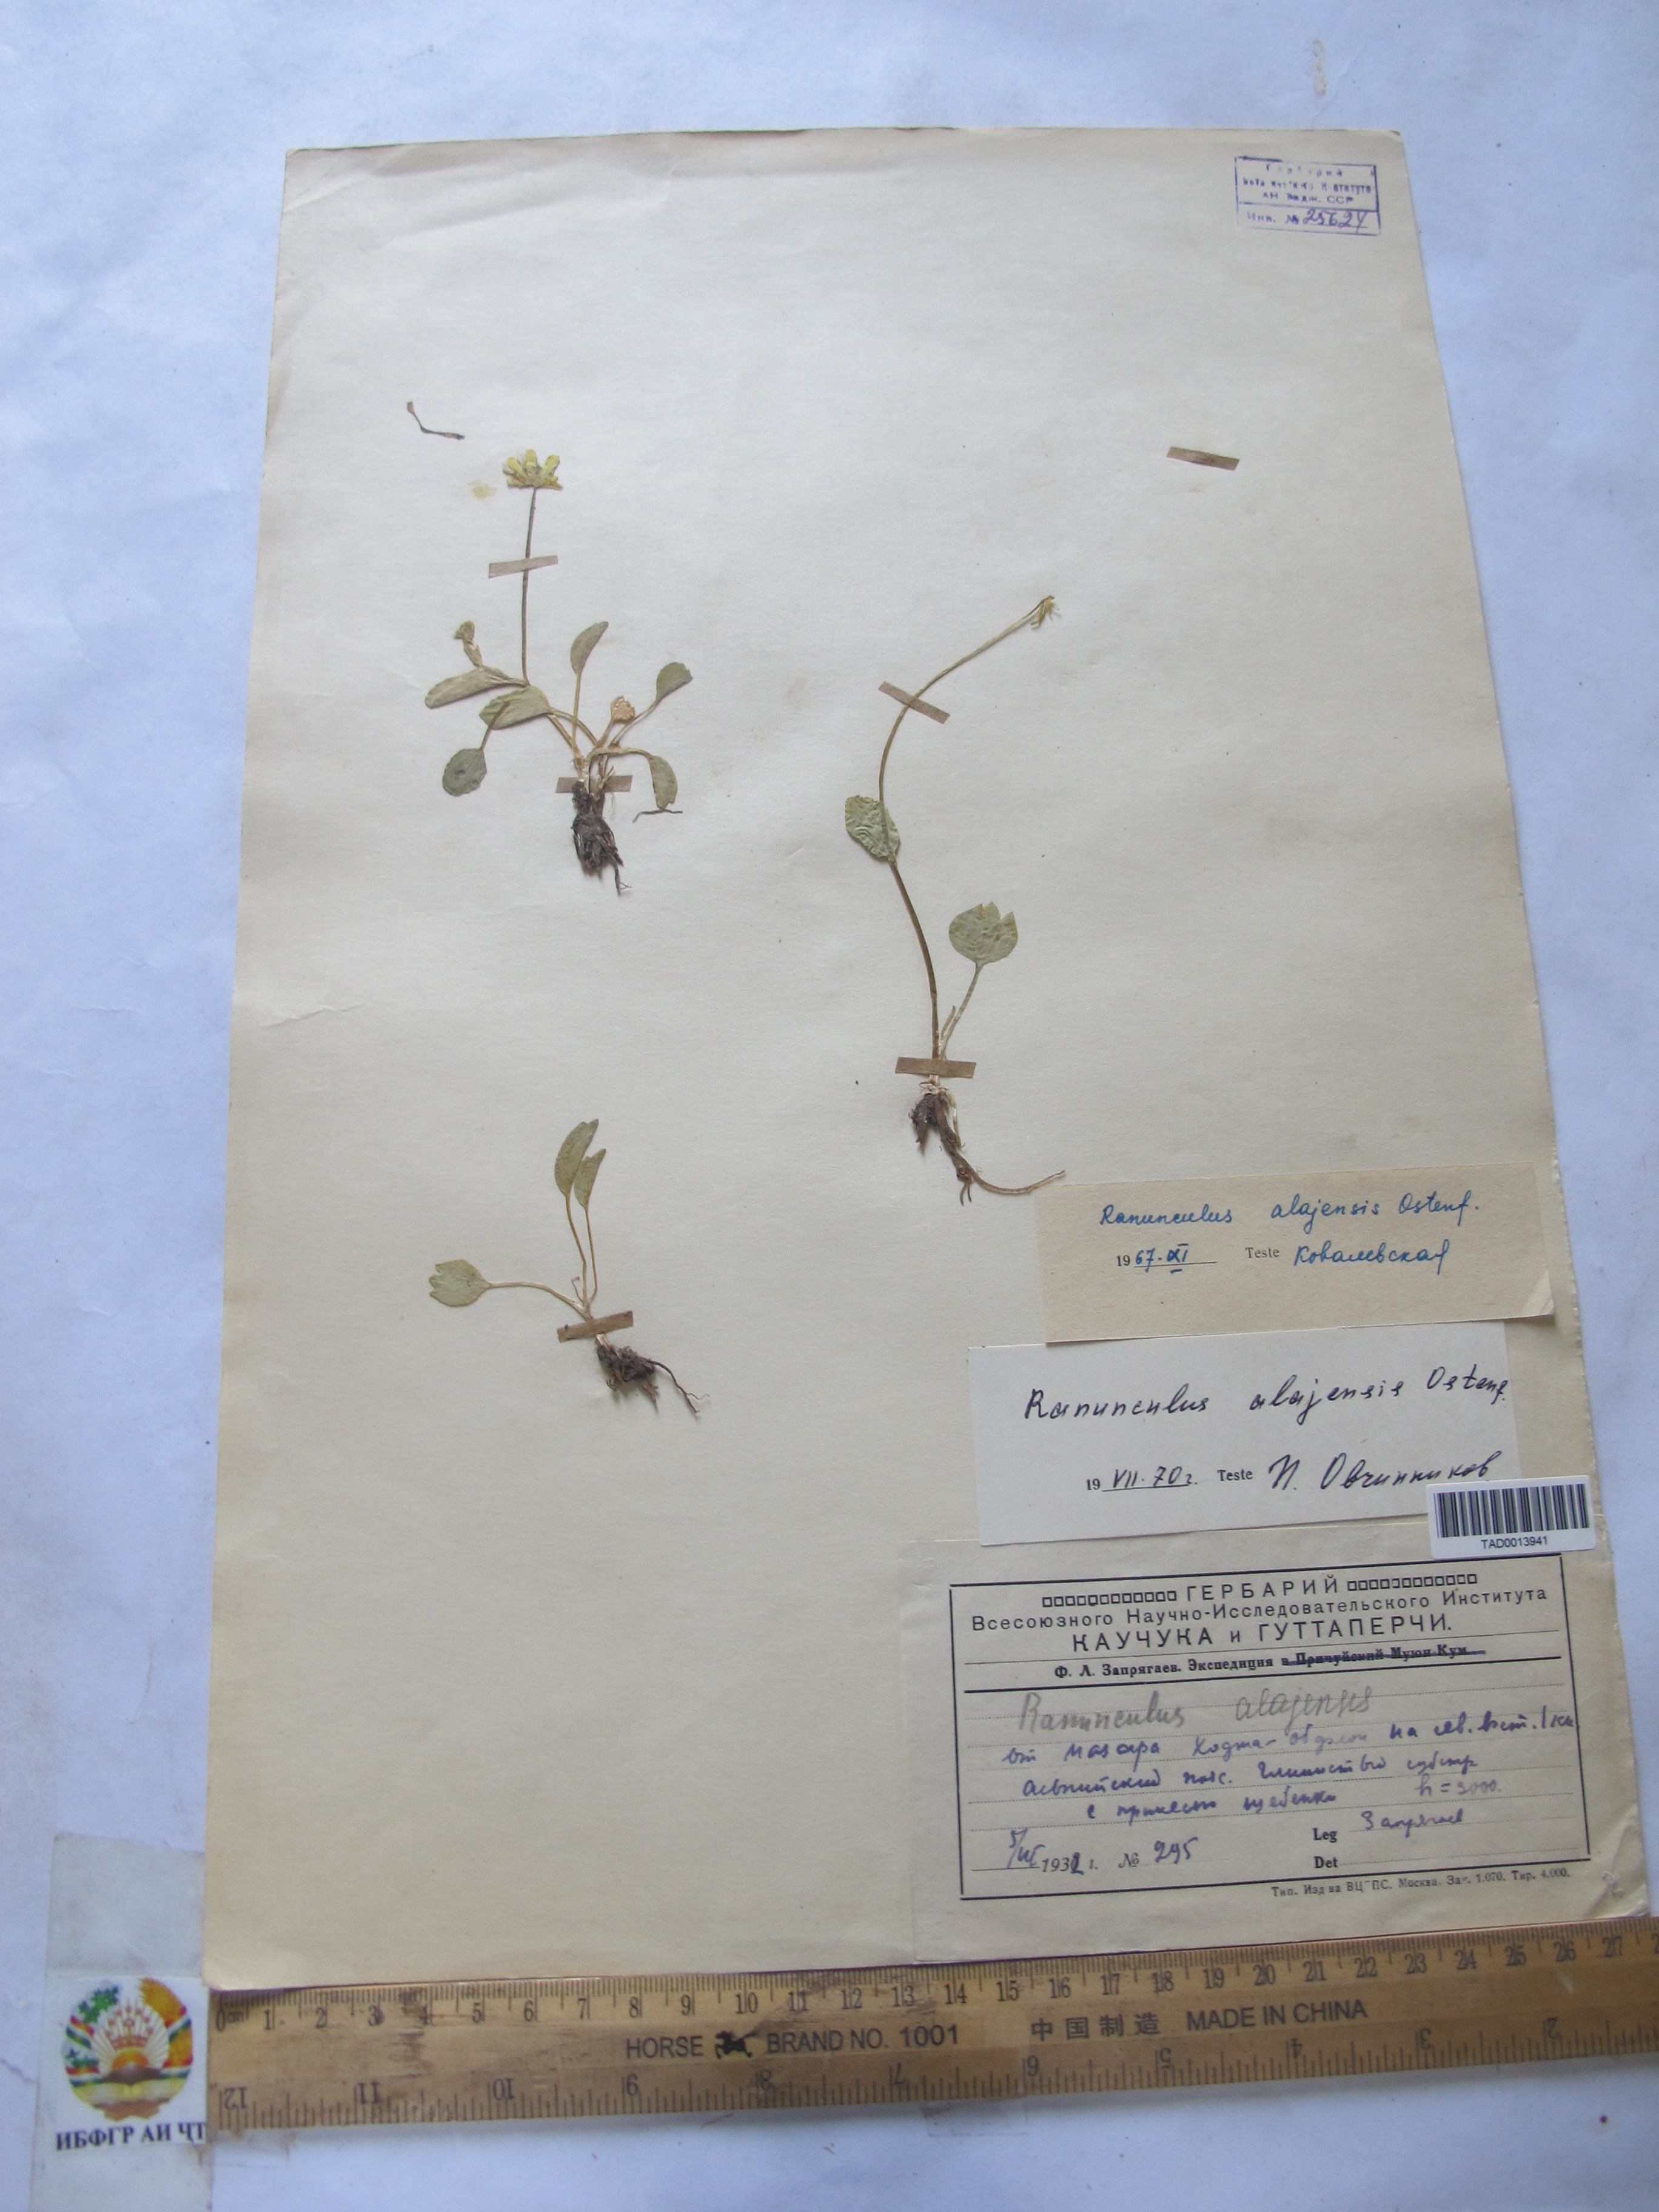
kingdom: Plantae
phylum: Tracheophyta
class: Magnoliopsida
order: Ranunculales
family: Ranunculaceae
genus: Ranunculus
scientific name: Ranunculus alaiensis
